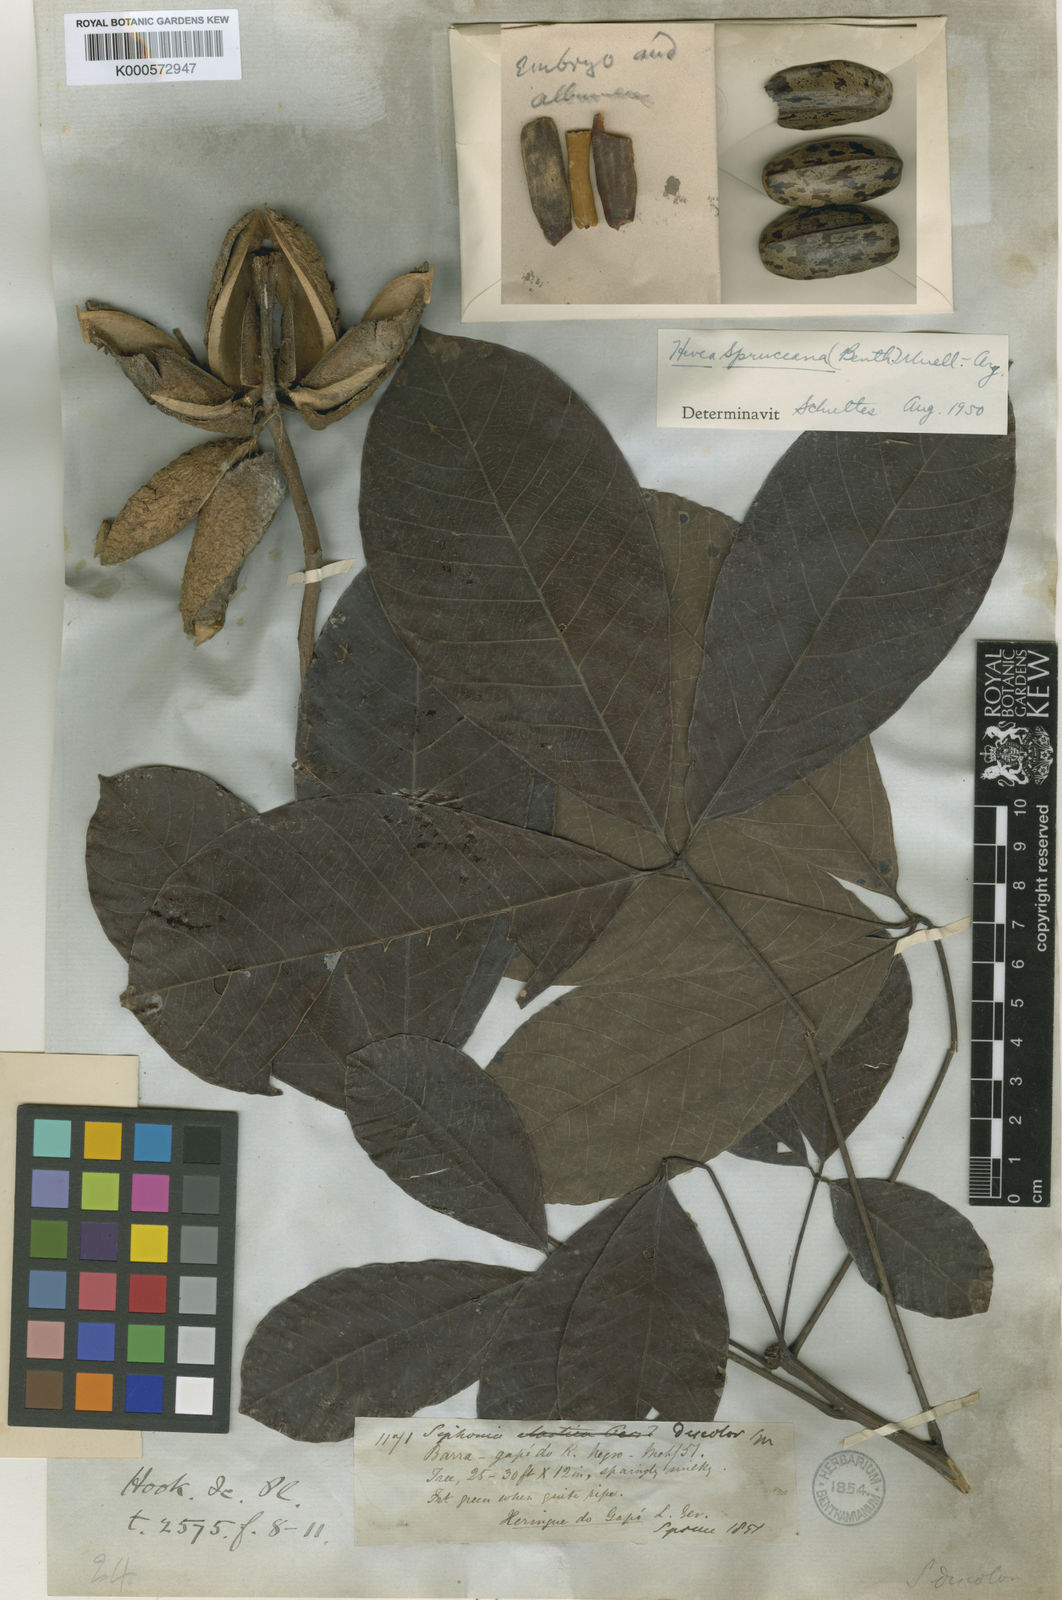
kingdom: Plantae
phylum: Tracheophyta
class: Magnoliopsida
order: Malpighiales
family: Euphorbiaceae
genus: Hevea
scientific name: Hevea spruceana
